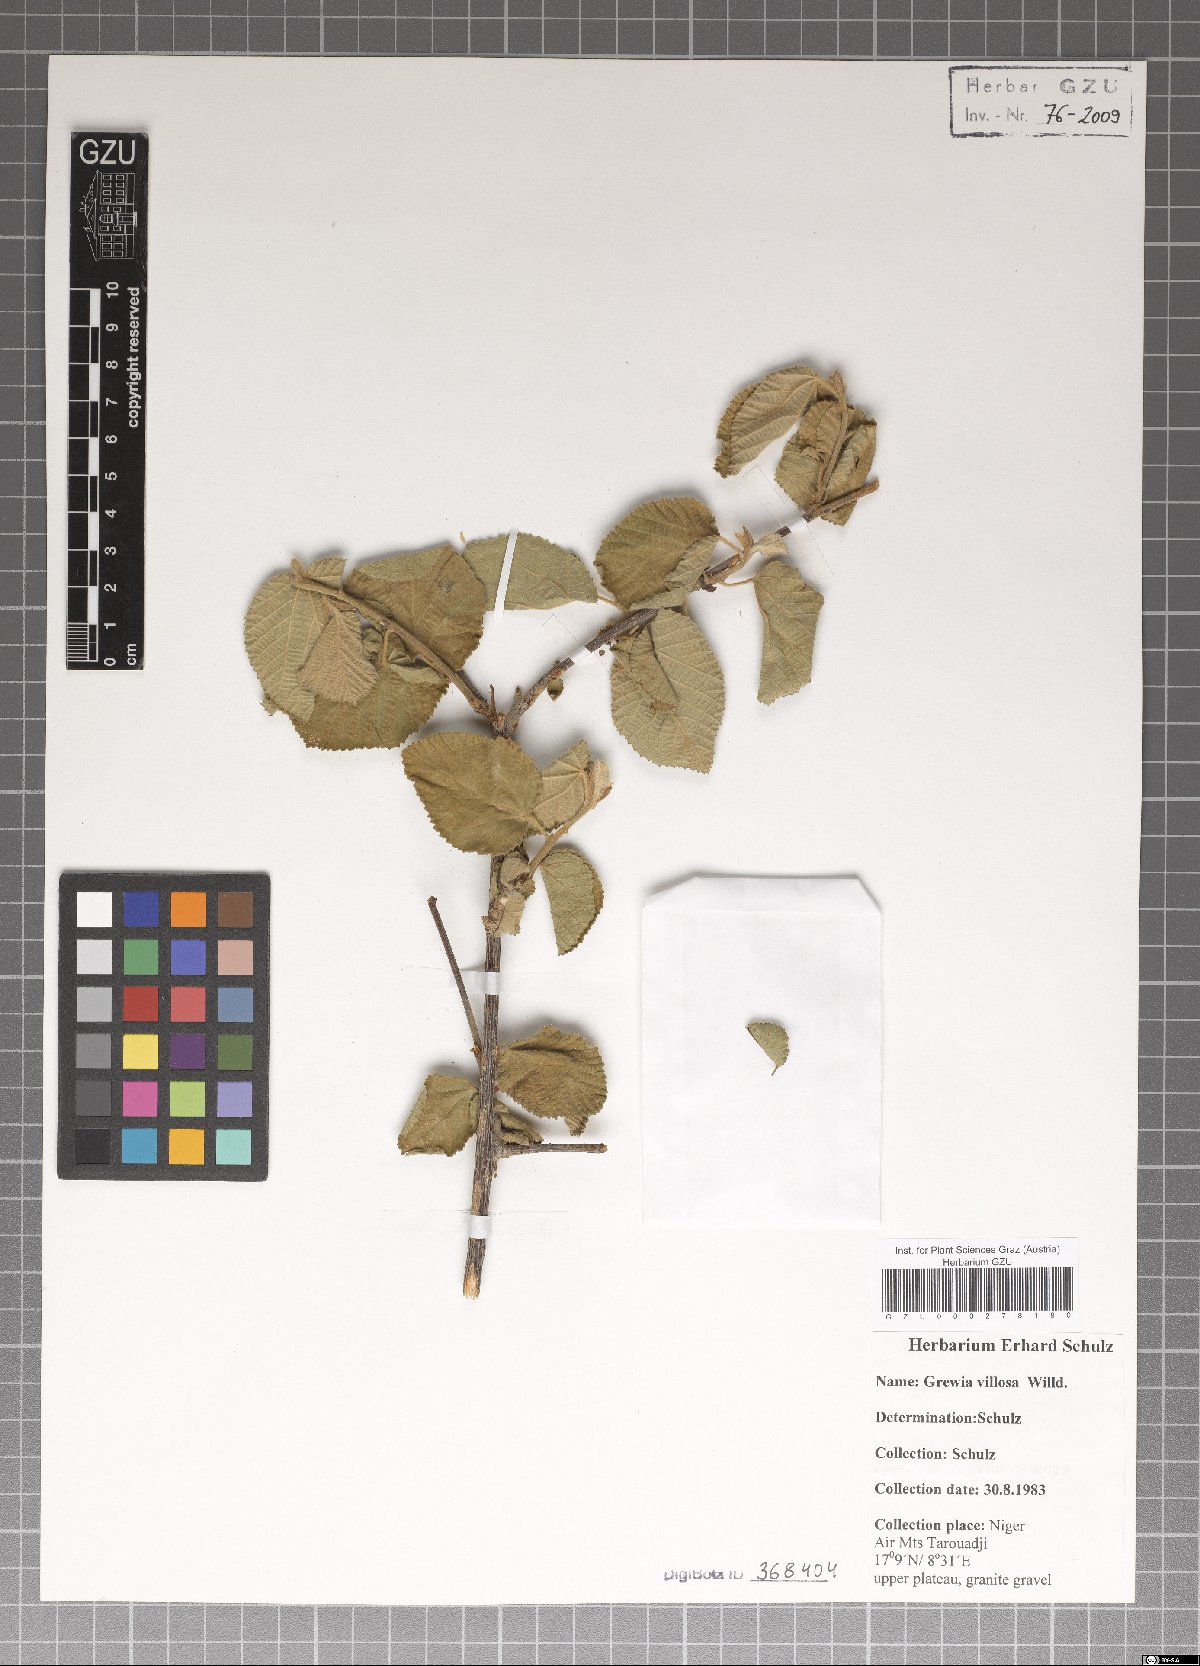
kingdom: Plantae
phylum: Tracheophyta
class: Magnoliopsida
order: Malvales
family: Malvaceae
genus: Grewia
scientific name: Grewia villosa
